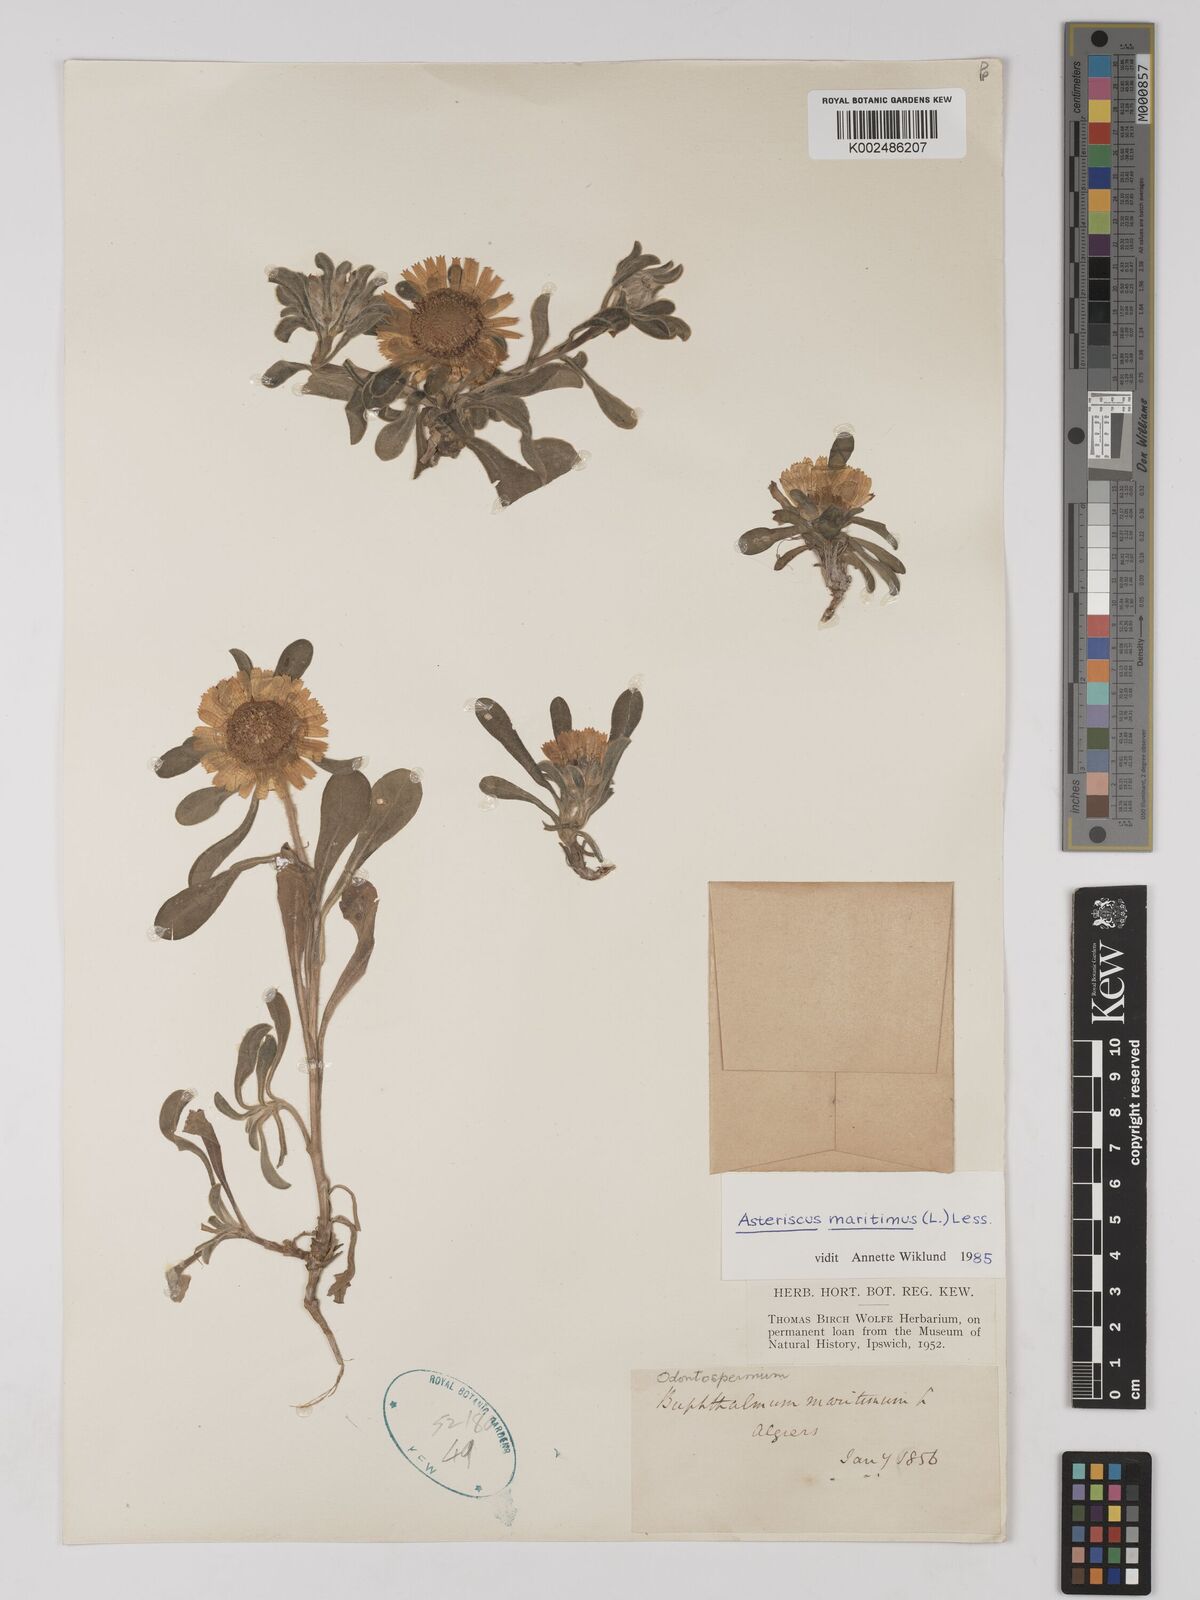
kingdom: Plantae
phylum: Tracheophyta
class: Magnoliopsida
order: Asterales
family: Asteraceae
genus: Pallenis
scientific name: Pallenis maritima
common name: Golden coin daisy
